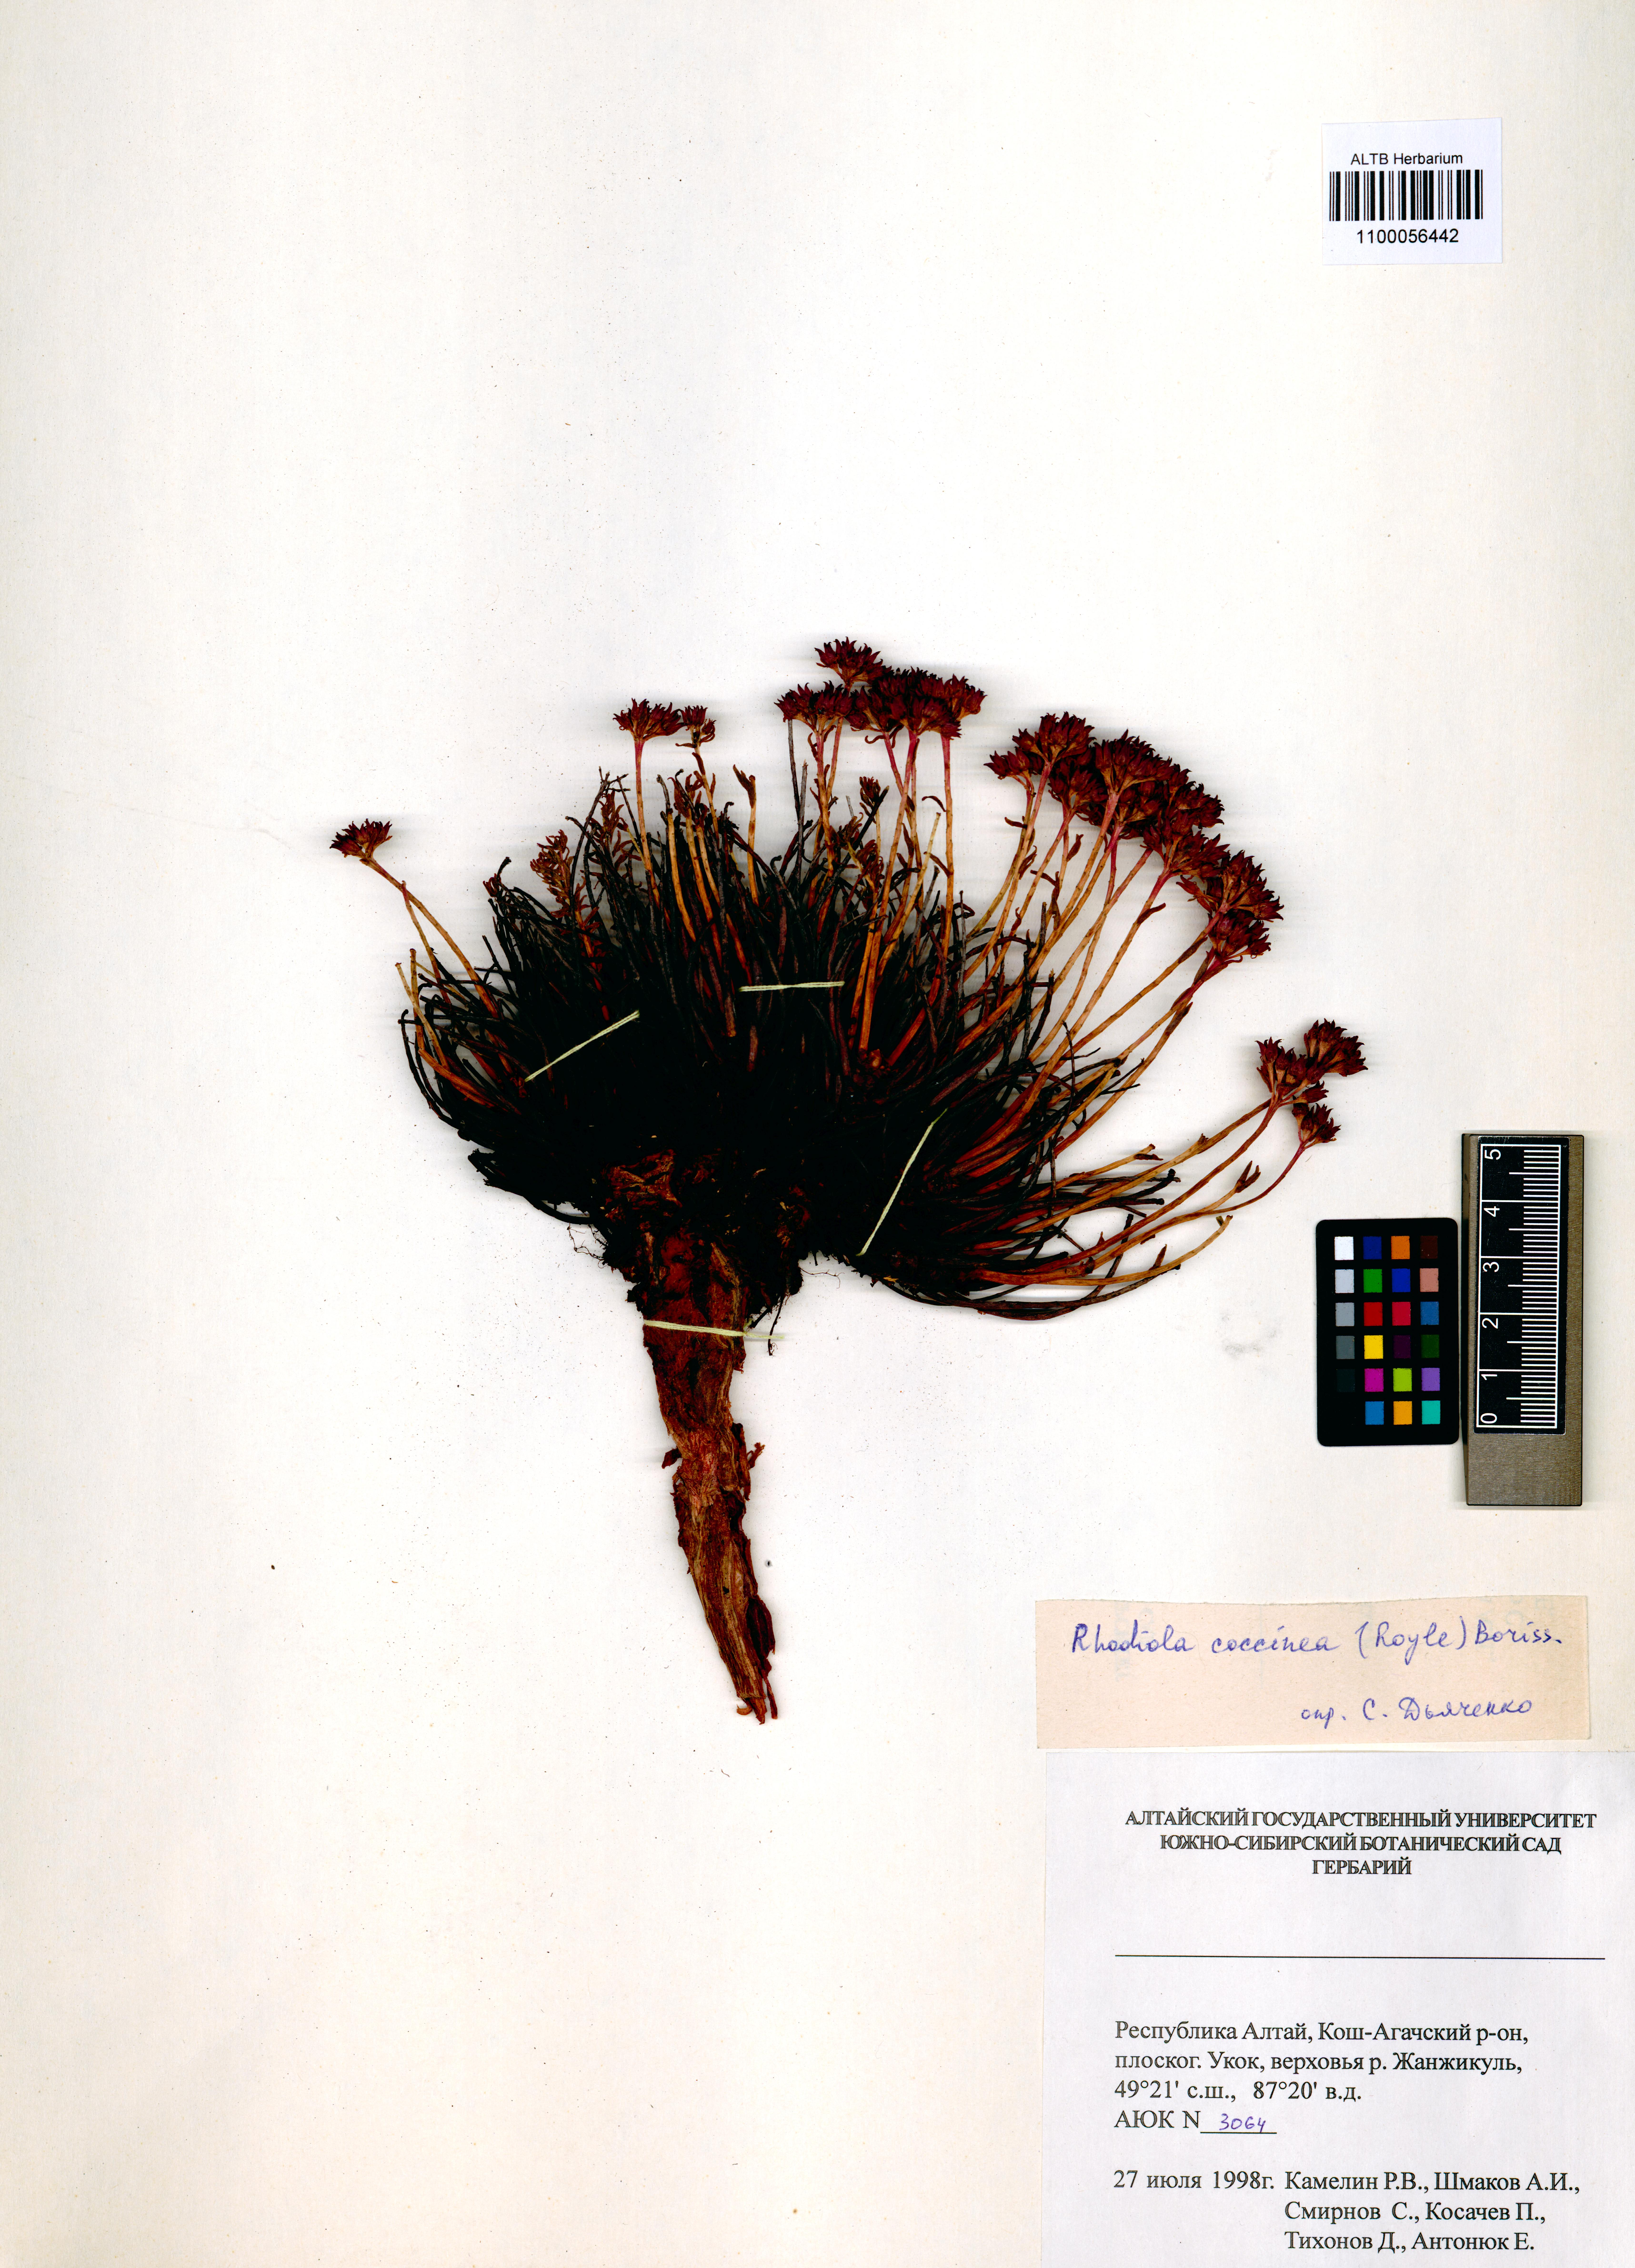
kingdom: Plantae
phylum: Tracheophyta
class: Magnoliopsida
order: Saxifragales
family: Crassulaceae
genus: Rhodiola
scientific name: Rhodiola coccinea
